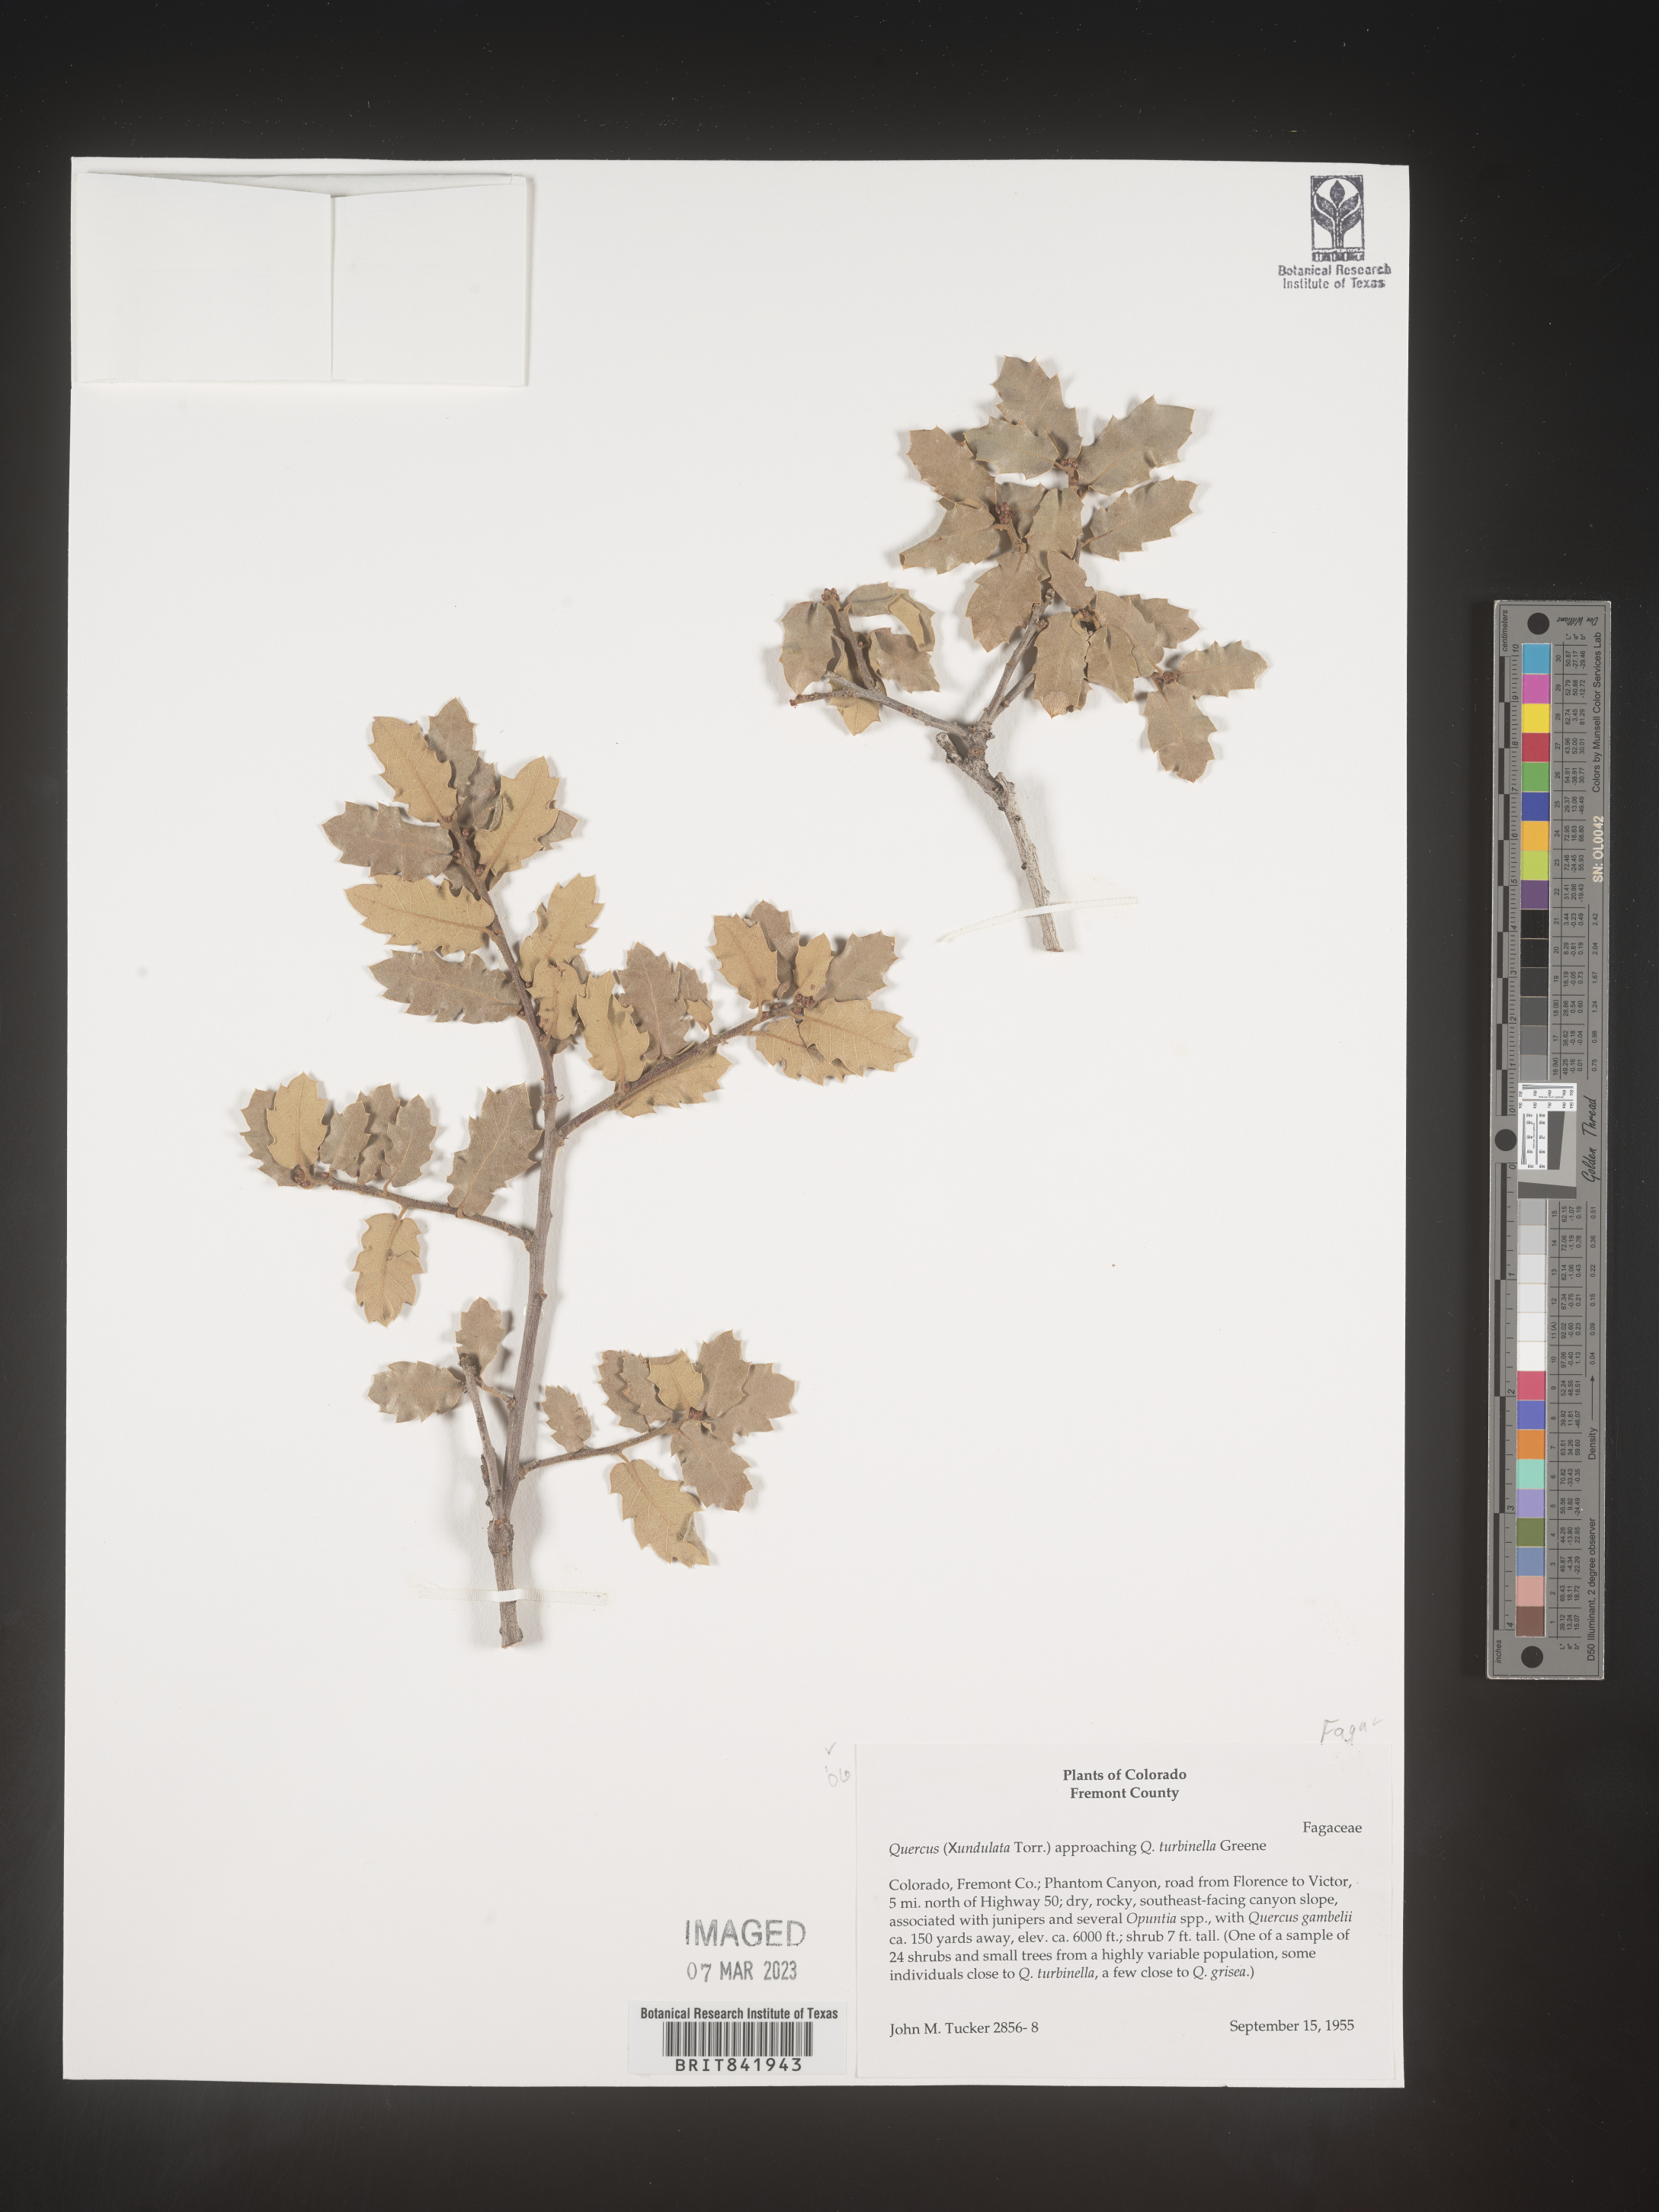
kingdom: Plantae
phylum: Tracheophyta
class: Magnoliopsida
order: Fagales
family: Fagaceae
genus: Quercus
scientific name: Quercus undulata
